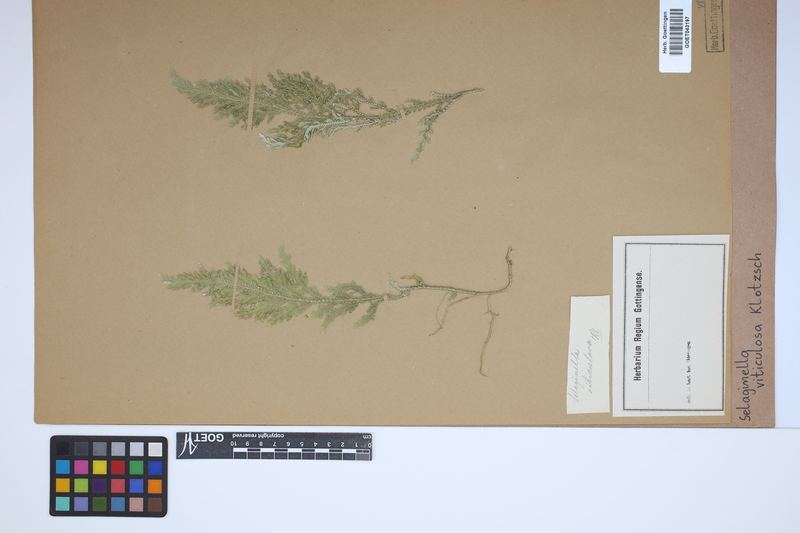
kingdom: Plantae
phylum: Tracheophyta
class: Lycopodiopsida
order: Selaginellales
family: Selaginellaceae
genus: Selaginella
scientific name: Selaginella viticulosa
